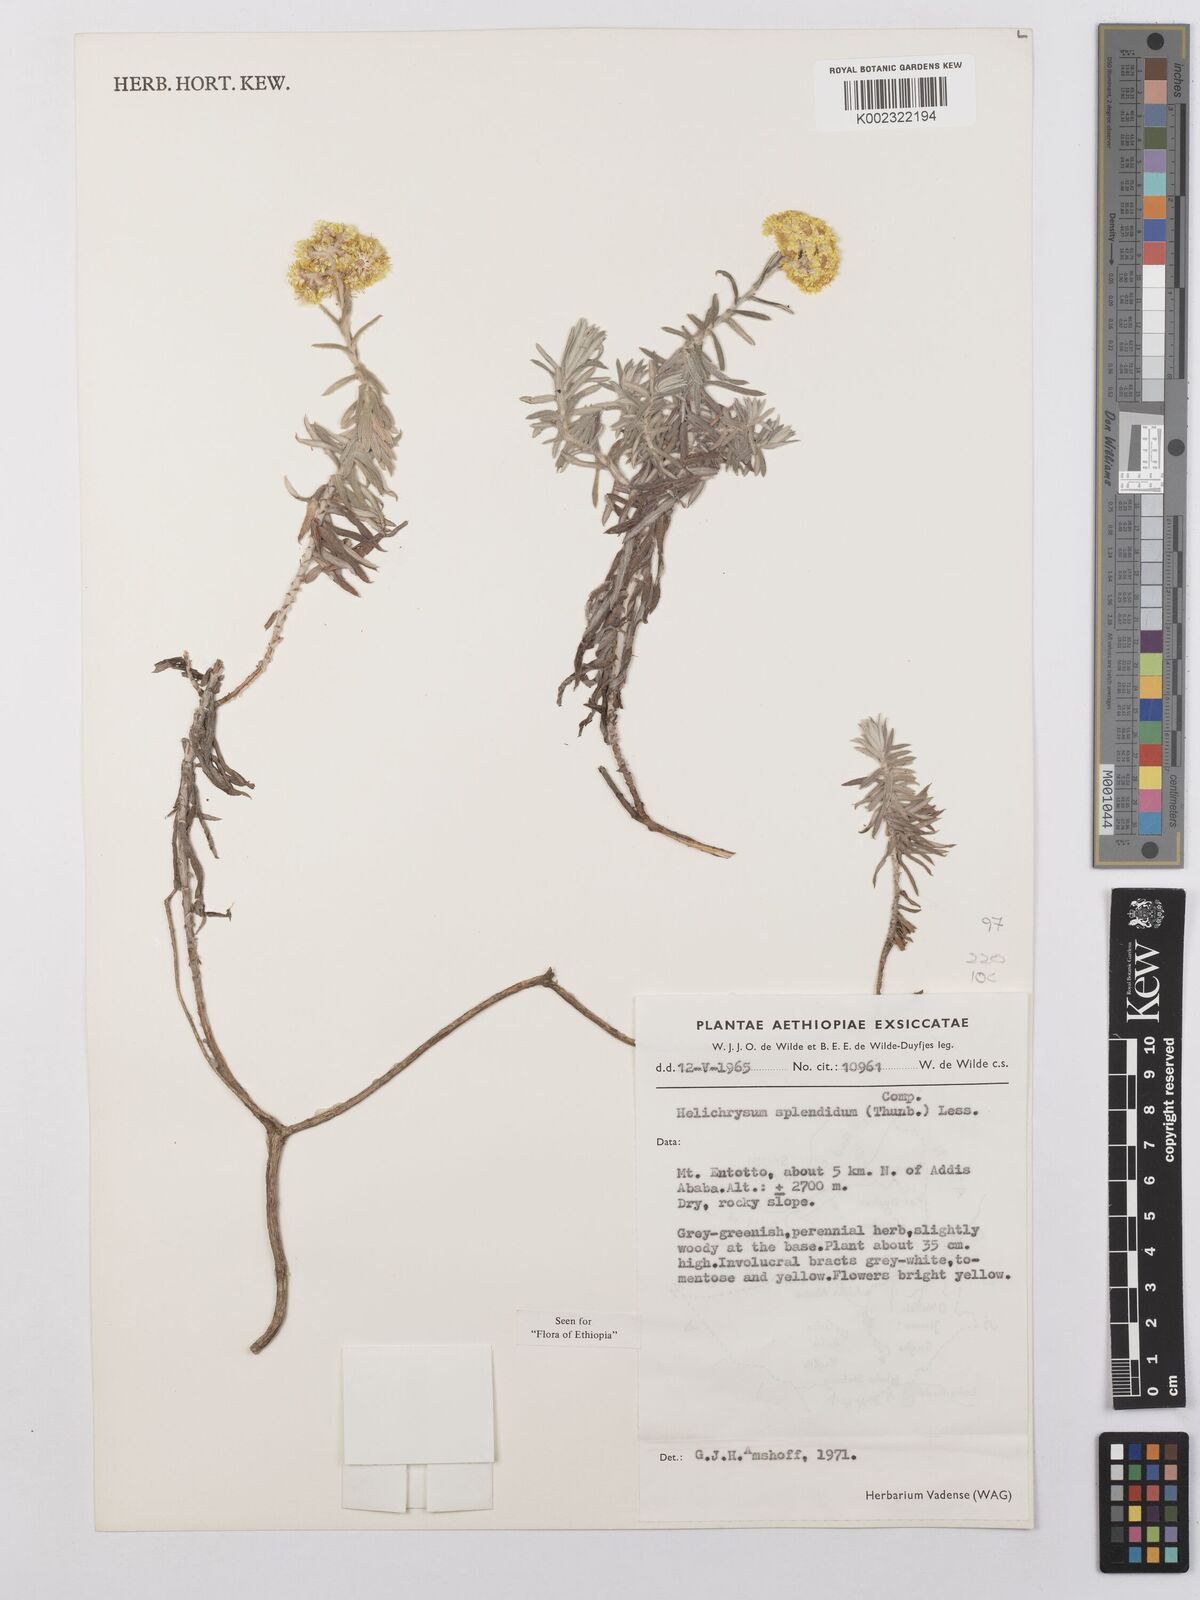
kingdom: Plantae
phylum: Tracheophyta
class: Magnoliopsida
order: Asterales
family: Asteraceae
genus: Helichrysum
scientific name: Helichrysum splendidum
